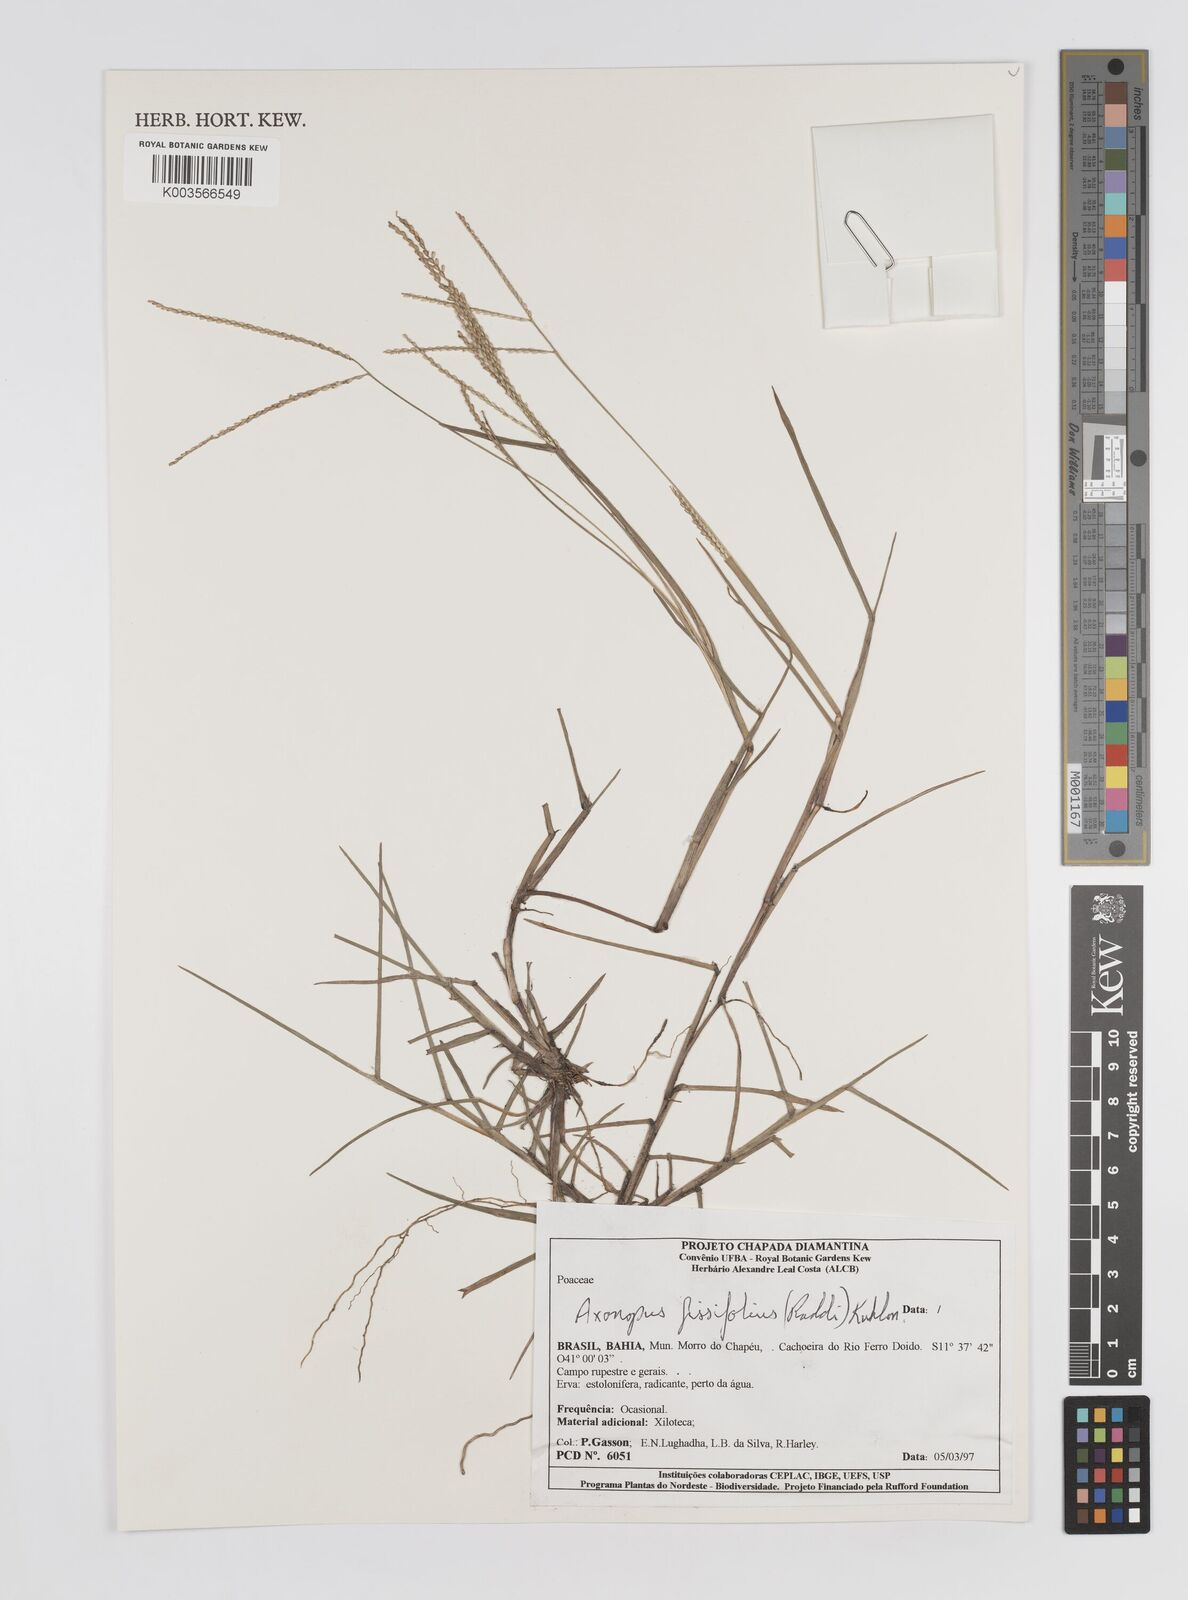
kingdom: Plantae
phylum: Tracheophyta
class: Liliopsida
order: Poales
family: Poaceae
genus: Axonopus
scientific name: Axonopus fissifolius
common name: Common carpetgrass
